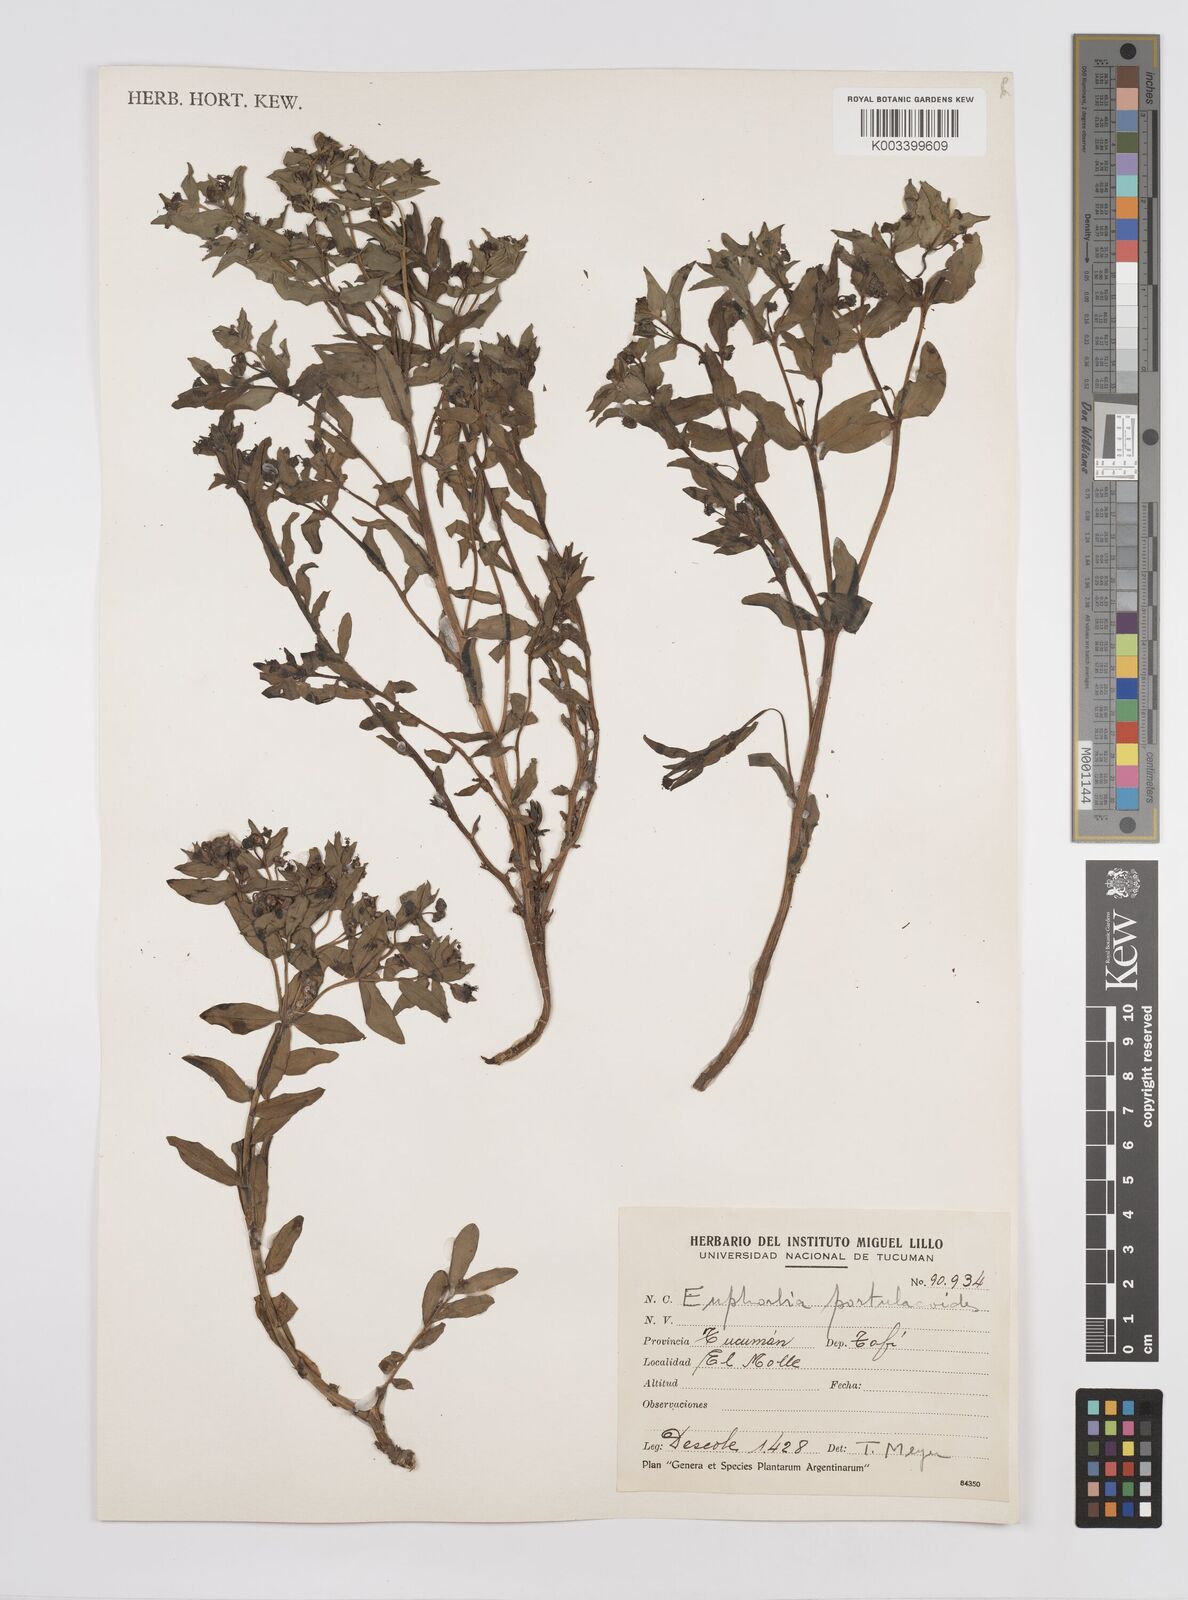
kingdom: Plantae
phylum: Tracheophyta
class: Magnoliopsida
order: Malpighiales
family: Euphorbiaceae
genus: Euphorbia
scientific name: Euphorbia portulacoides
